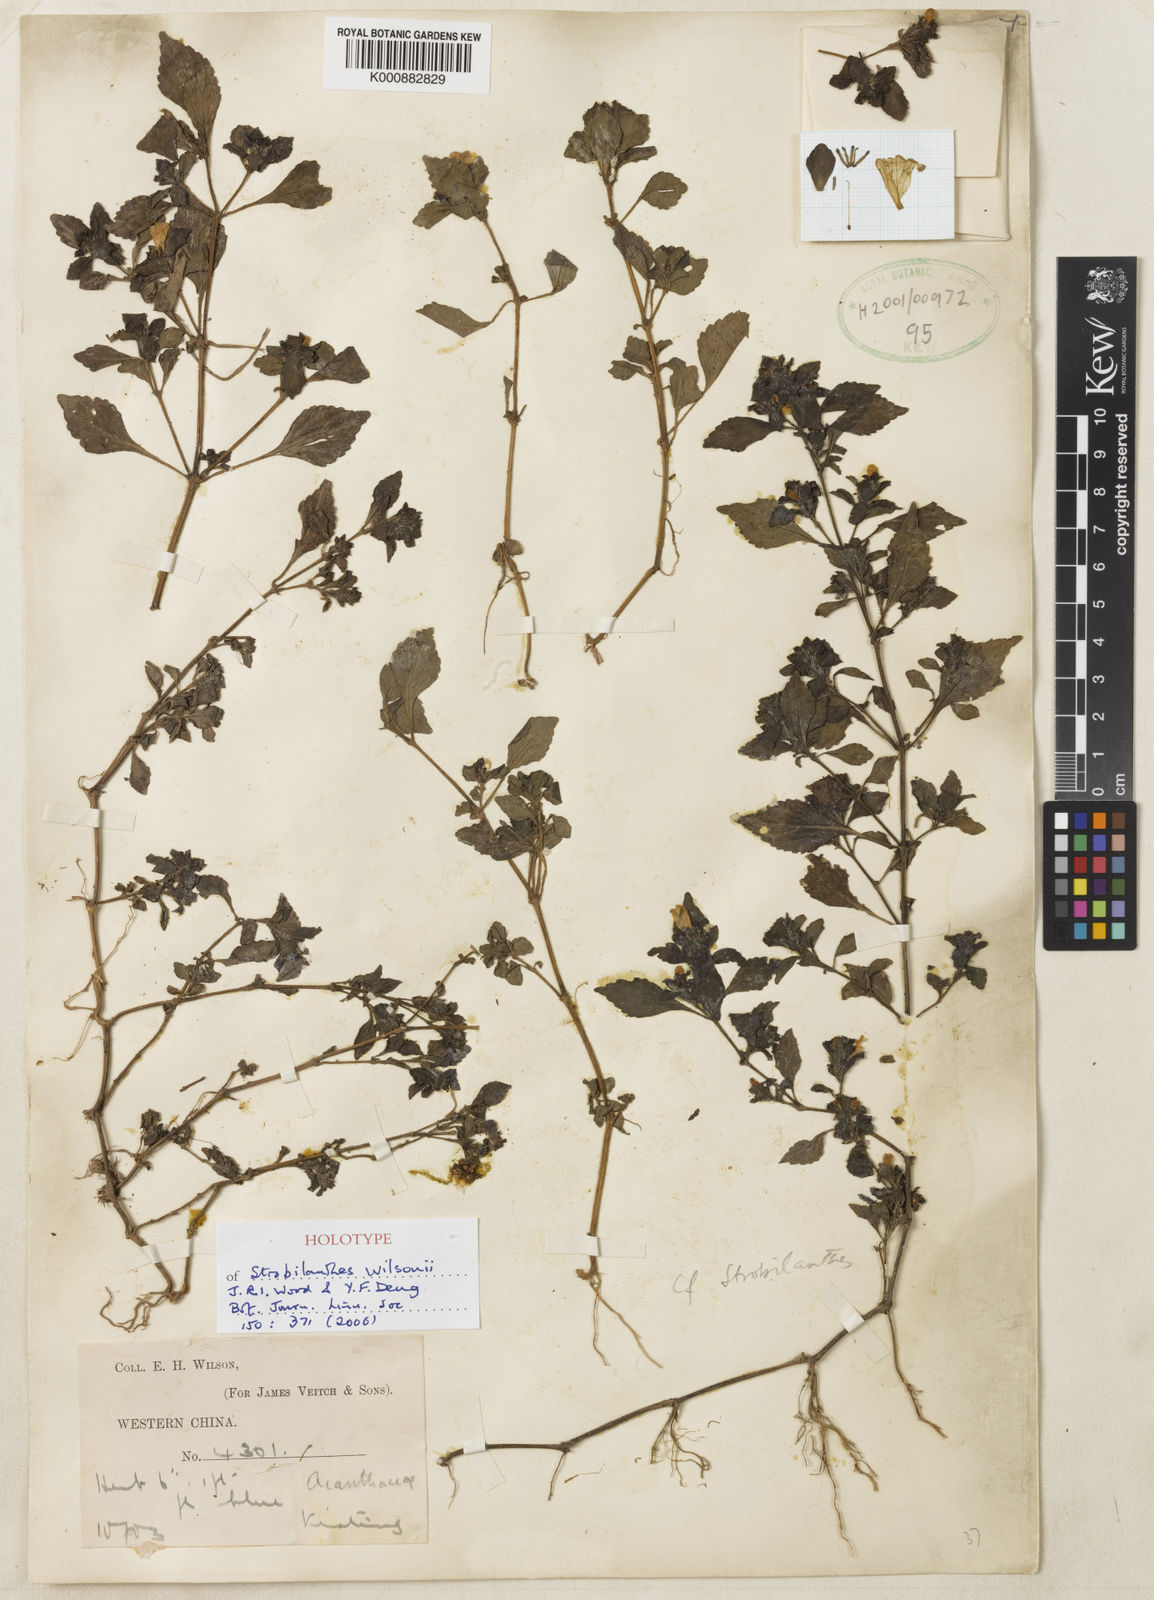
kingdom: Plantae
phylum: Tracheophyta
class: Magnoliopsida
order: Lamiales
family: Acanthaceae
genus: Strobilanthes
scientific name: Strobilanthes wilsonii
